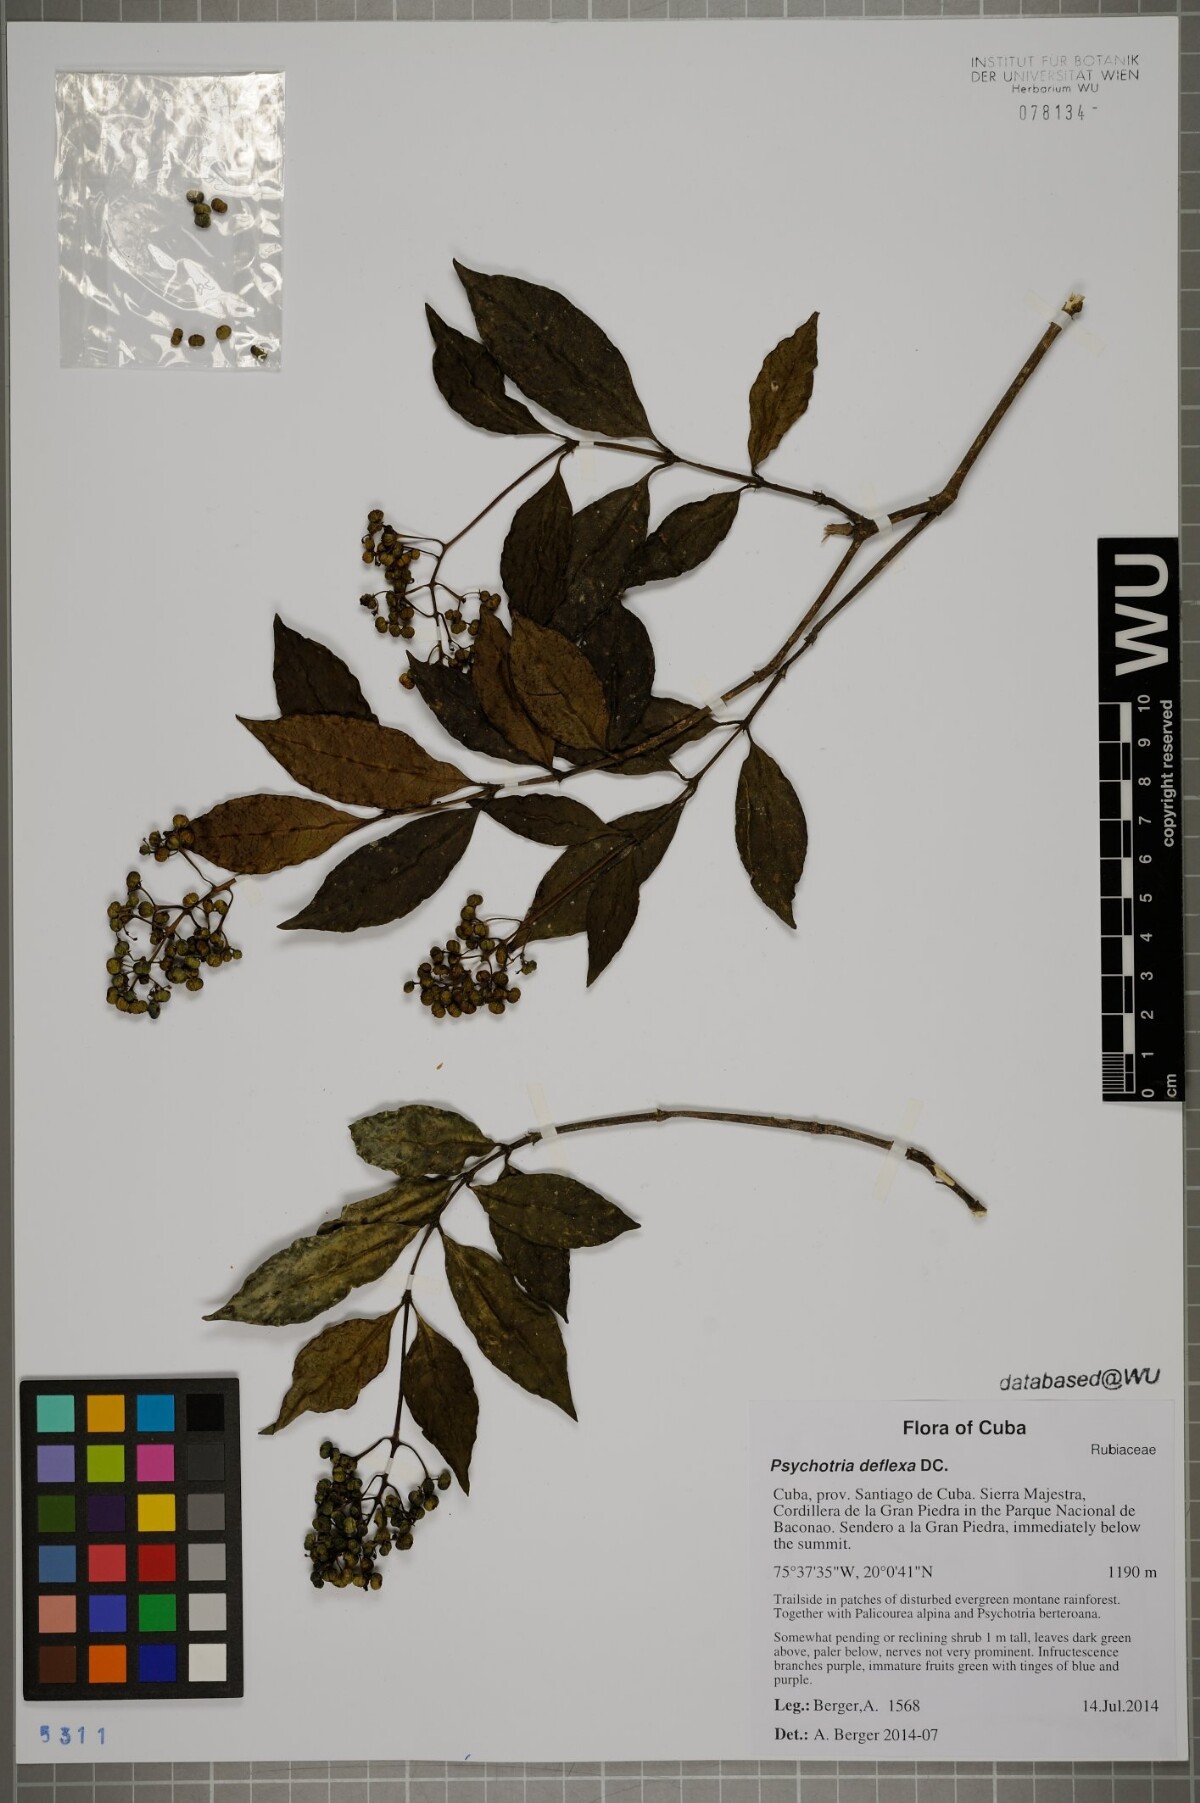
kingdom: Plantae
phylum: Tracheophyta
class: Magnoliopsida
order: Gentianales
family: Rubiaceae
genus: Palicourea
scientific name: Palicourea deflexa
